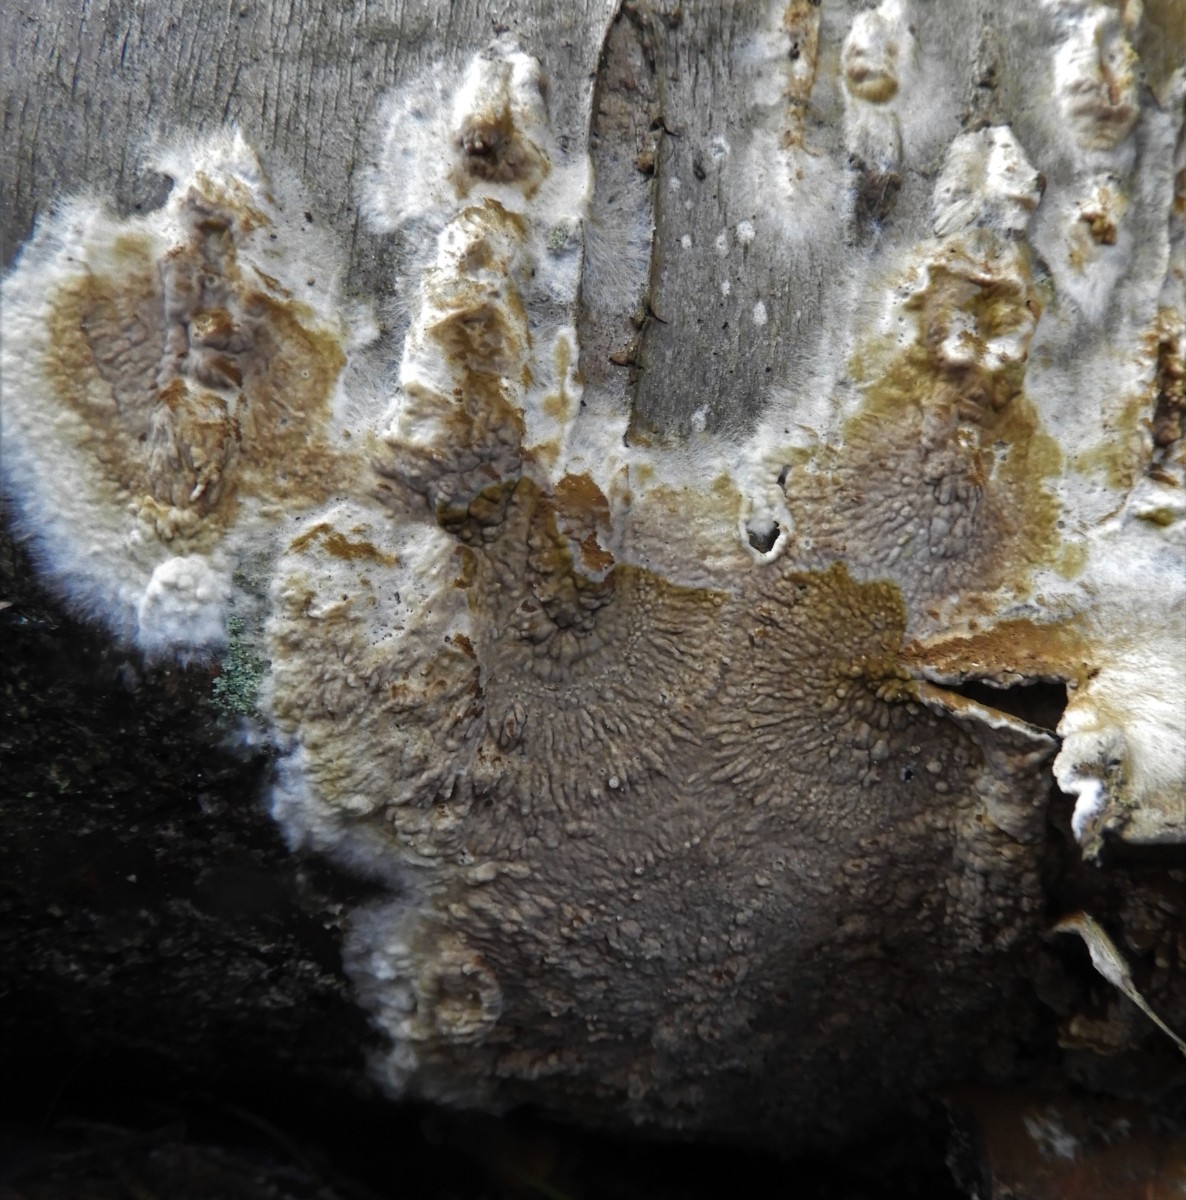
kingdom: Fungi
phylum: Basidiomycota
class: Agaricomycetes
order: Boletales
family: Coniophoraceae
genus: Coniophora
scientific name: Coniophora puteana
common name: gul tømmersvamp
